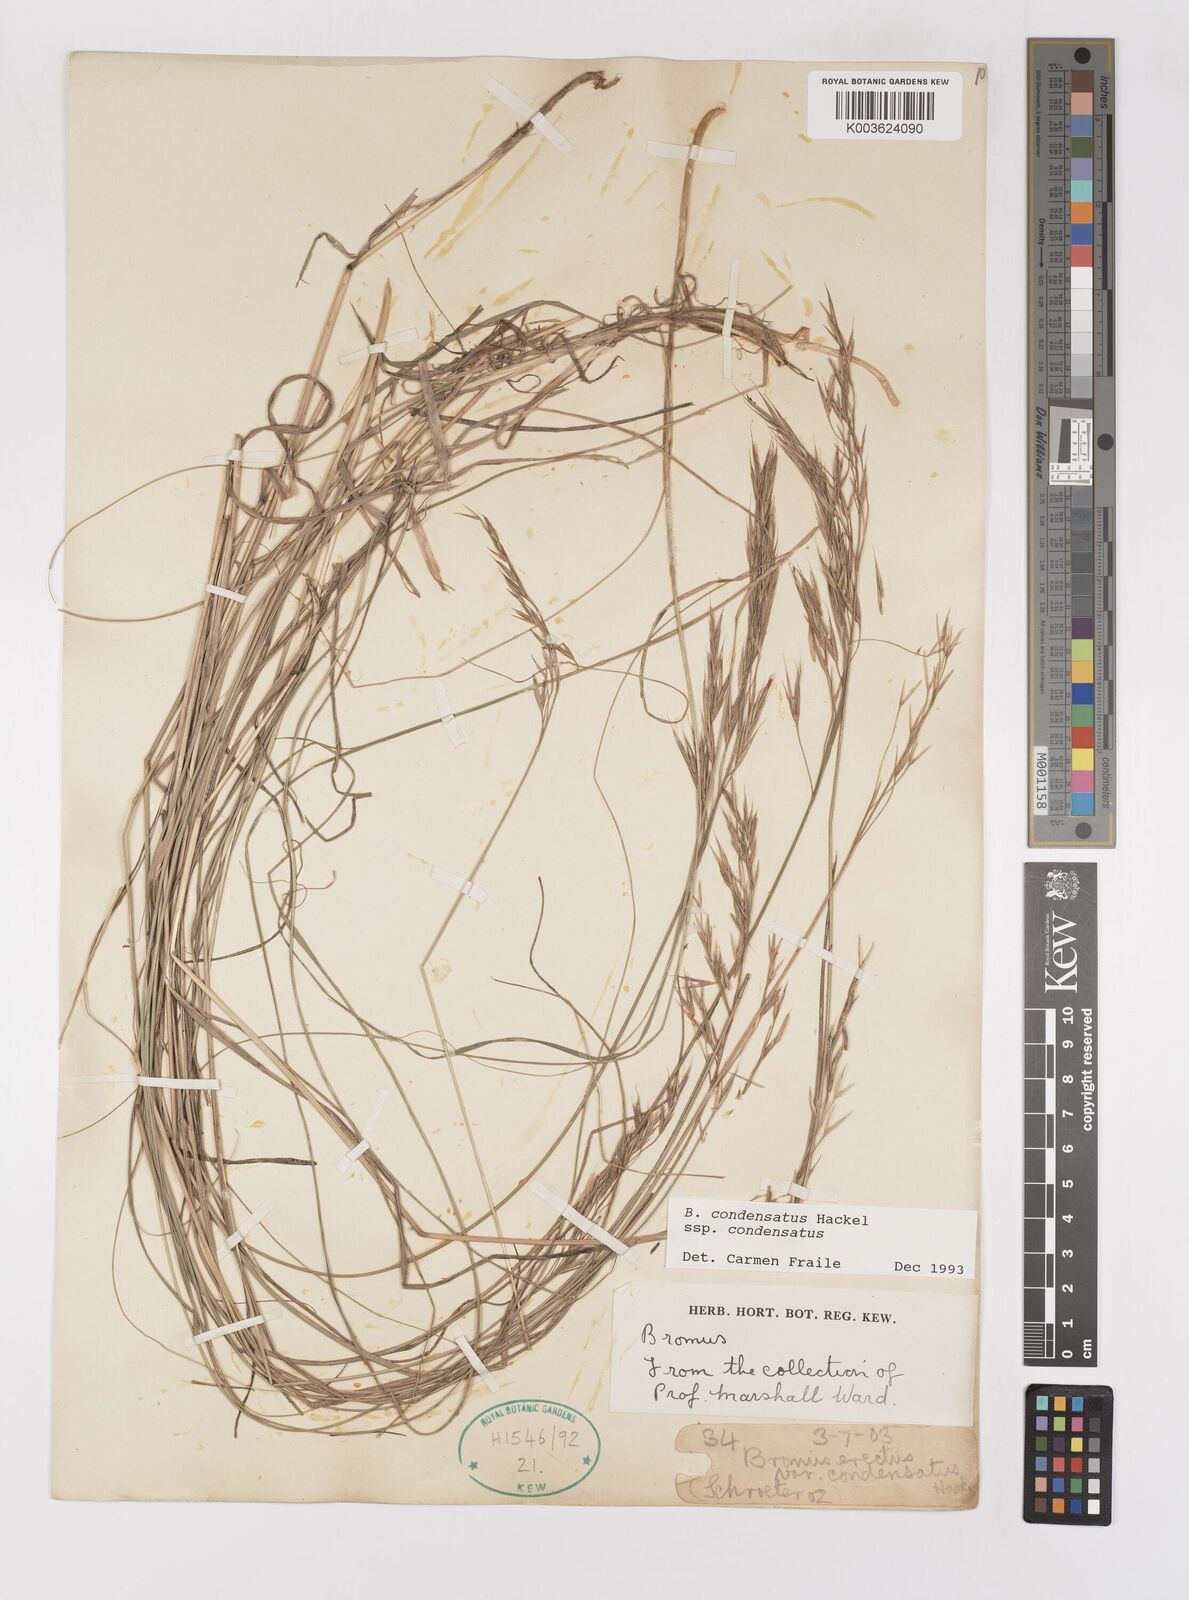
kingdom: Plantae
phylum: Tracheophyta
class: Liliopsida
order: Poales
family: Poaceae
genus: Bromus
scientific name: Bromus erectus
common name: Erect brome
